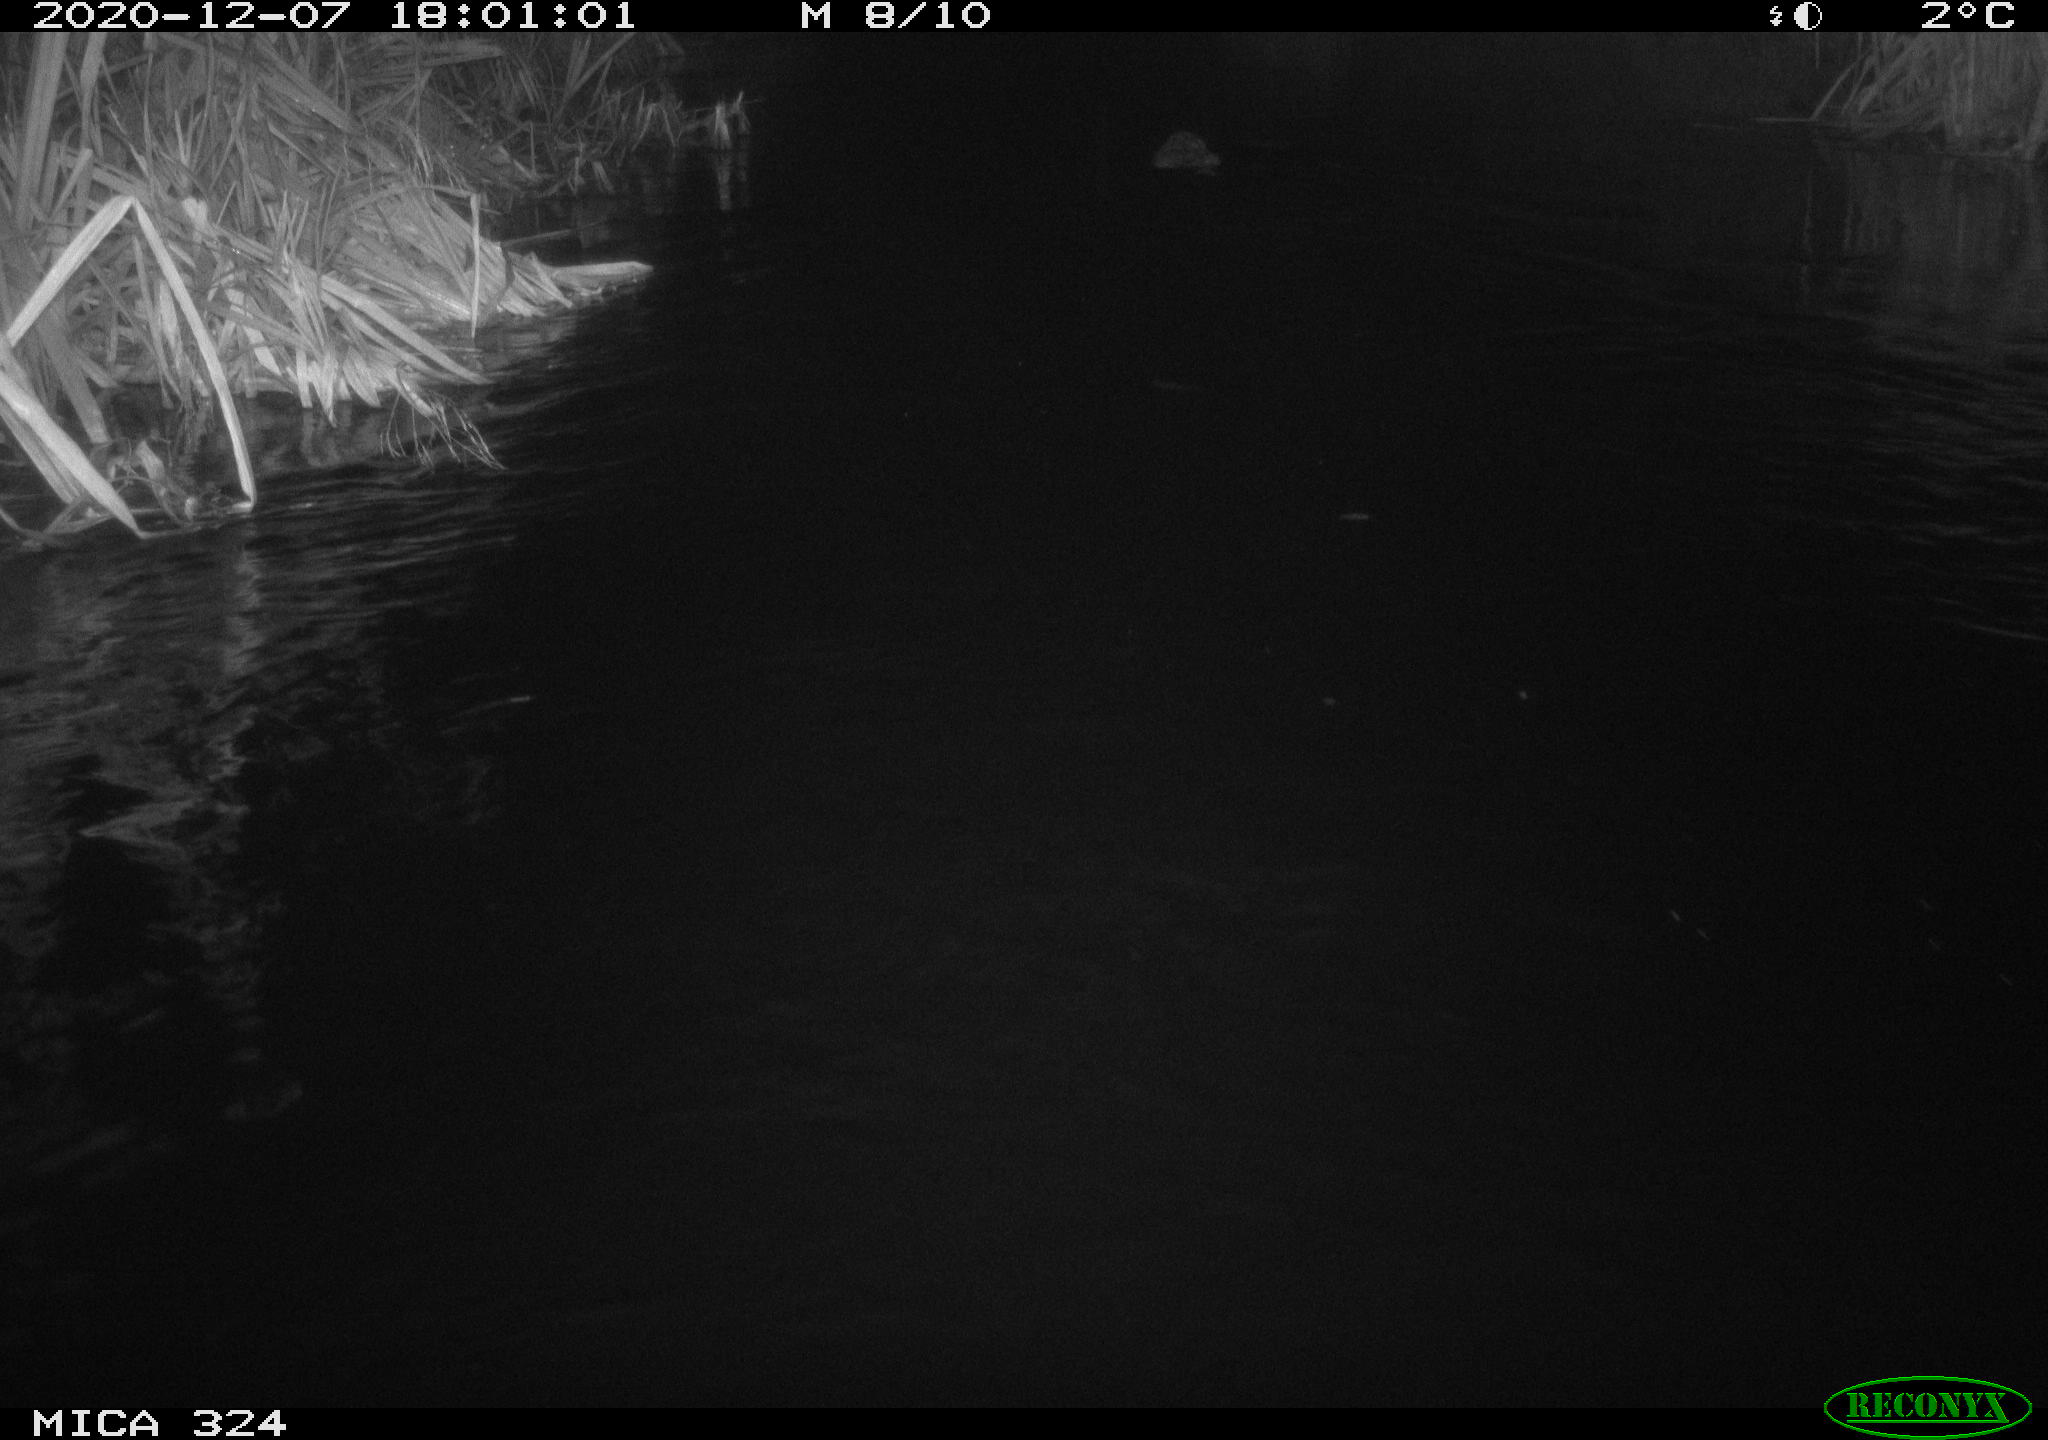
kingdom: Animalia
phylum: Chordata
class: Mammalia
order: Rodentia
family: Castoridae
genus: Castor
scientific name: Castor fiber
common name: Eurasian beaver
